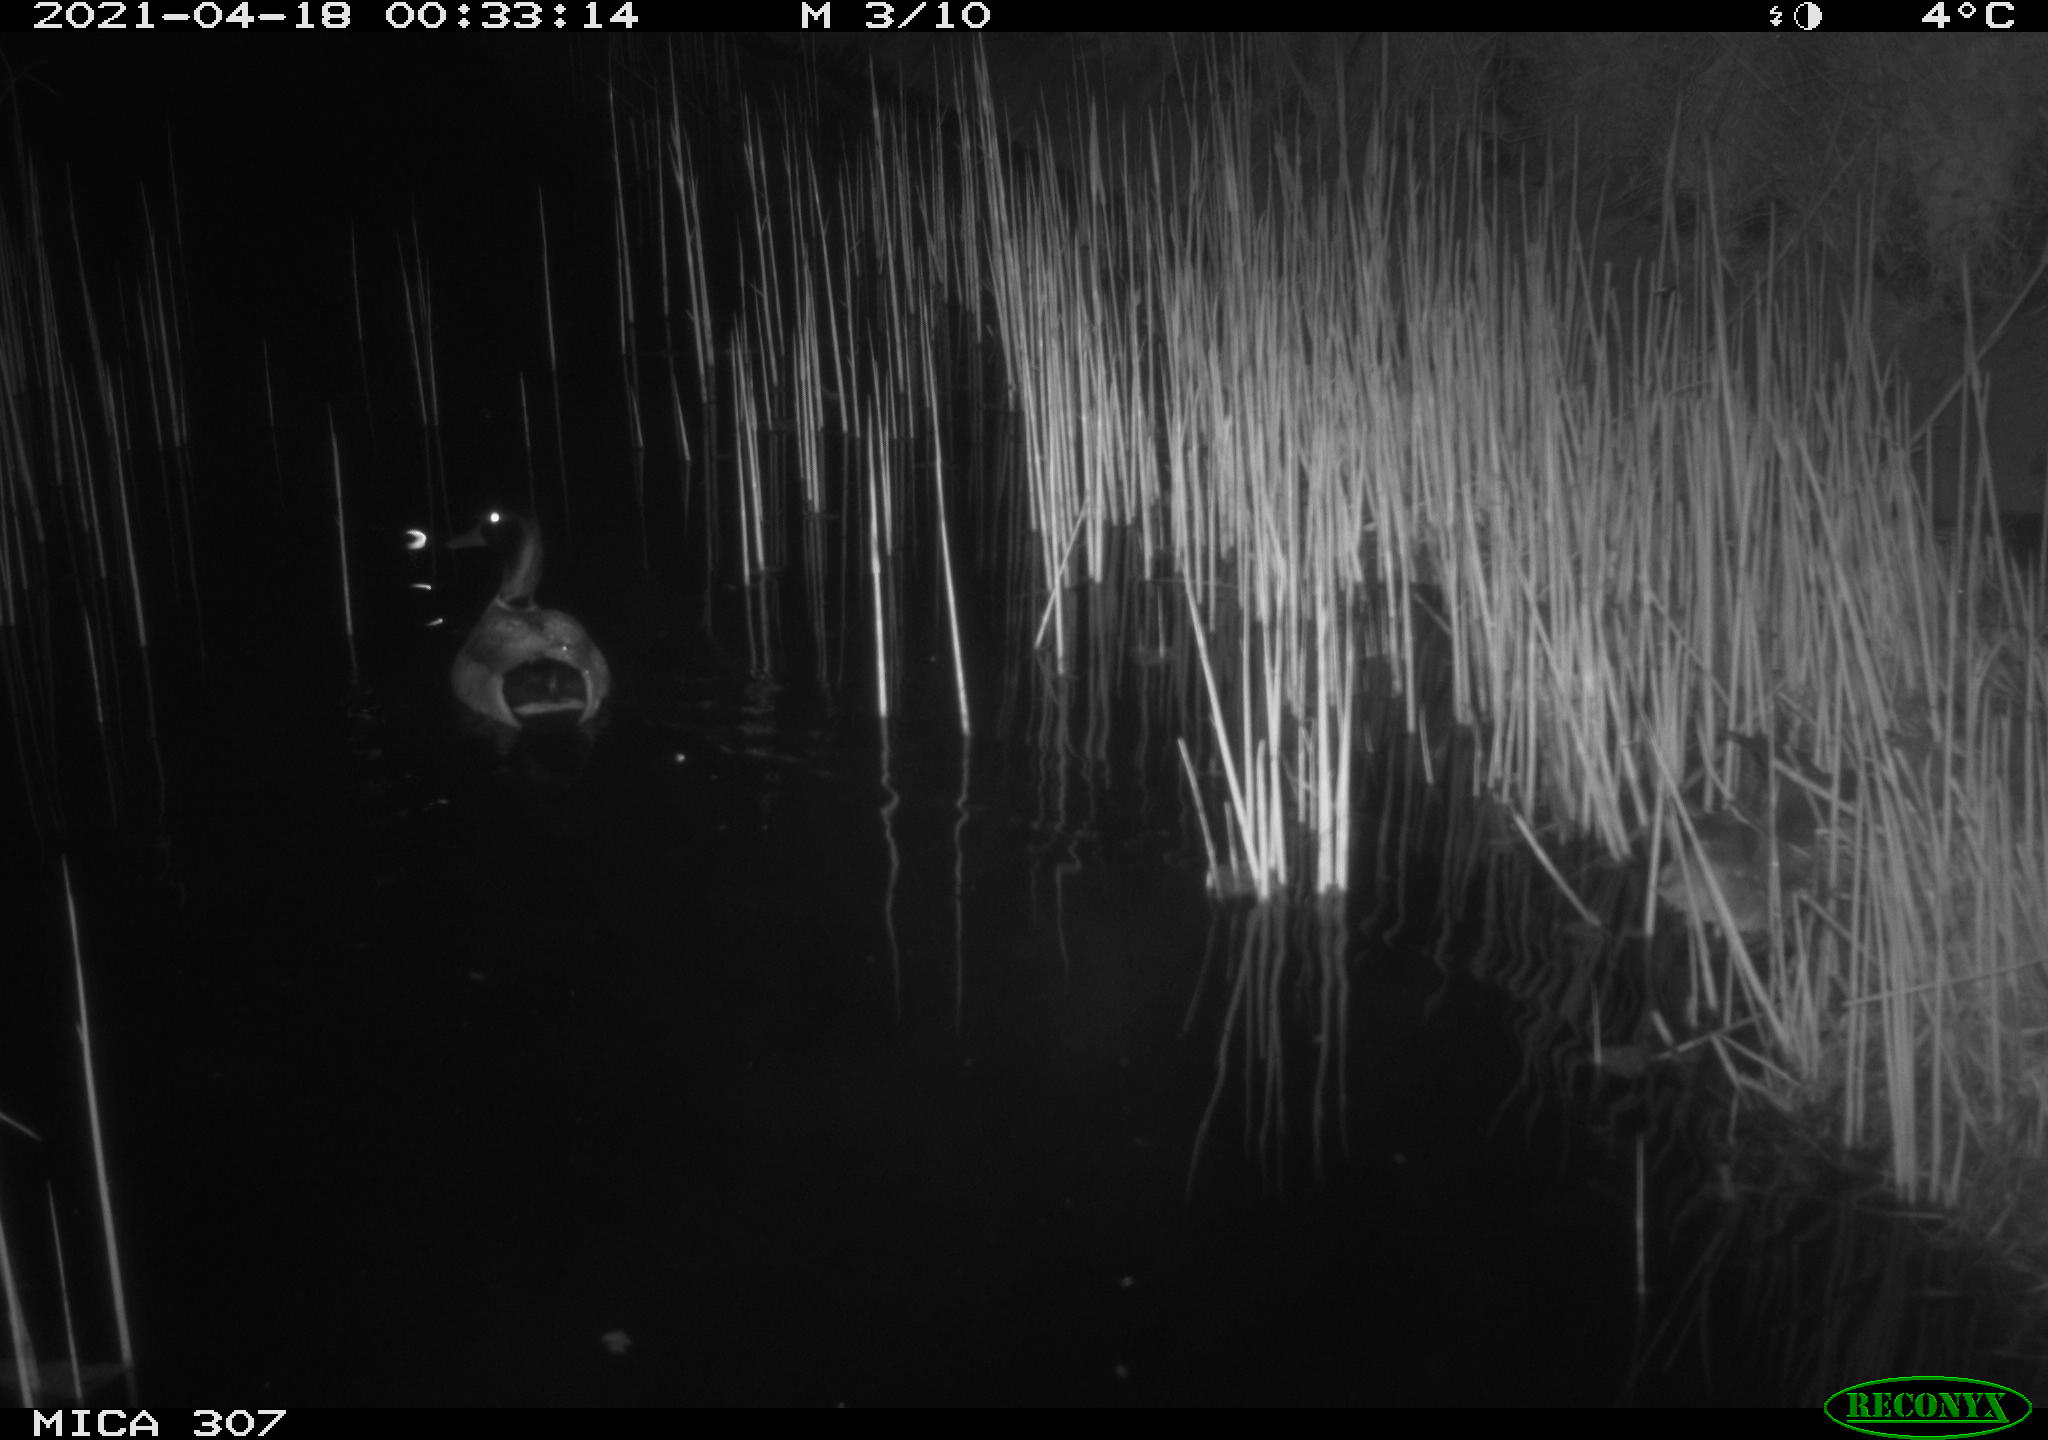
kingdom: Animalia
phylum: Chordata
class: Aves
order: Gruiformes
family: Rallidae
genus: Gallinula
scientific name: Gallinula chloropus
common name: Common moorhen
